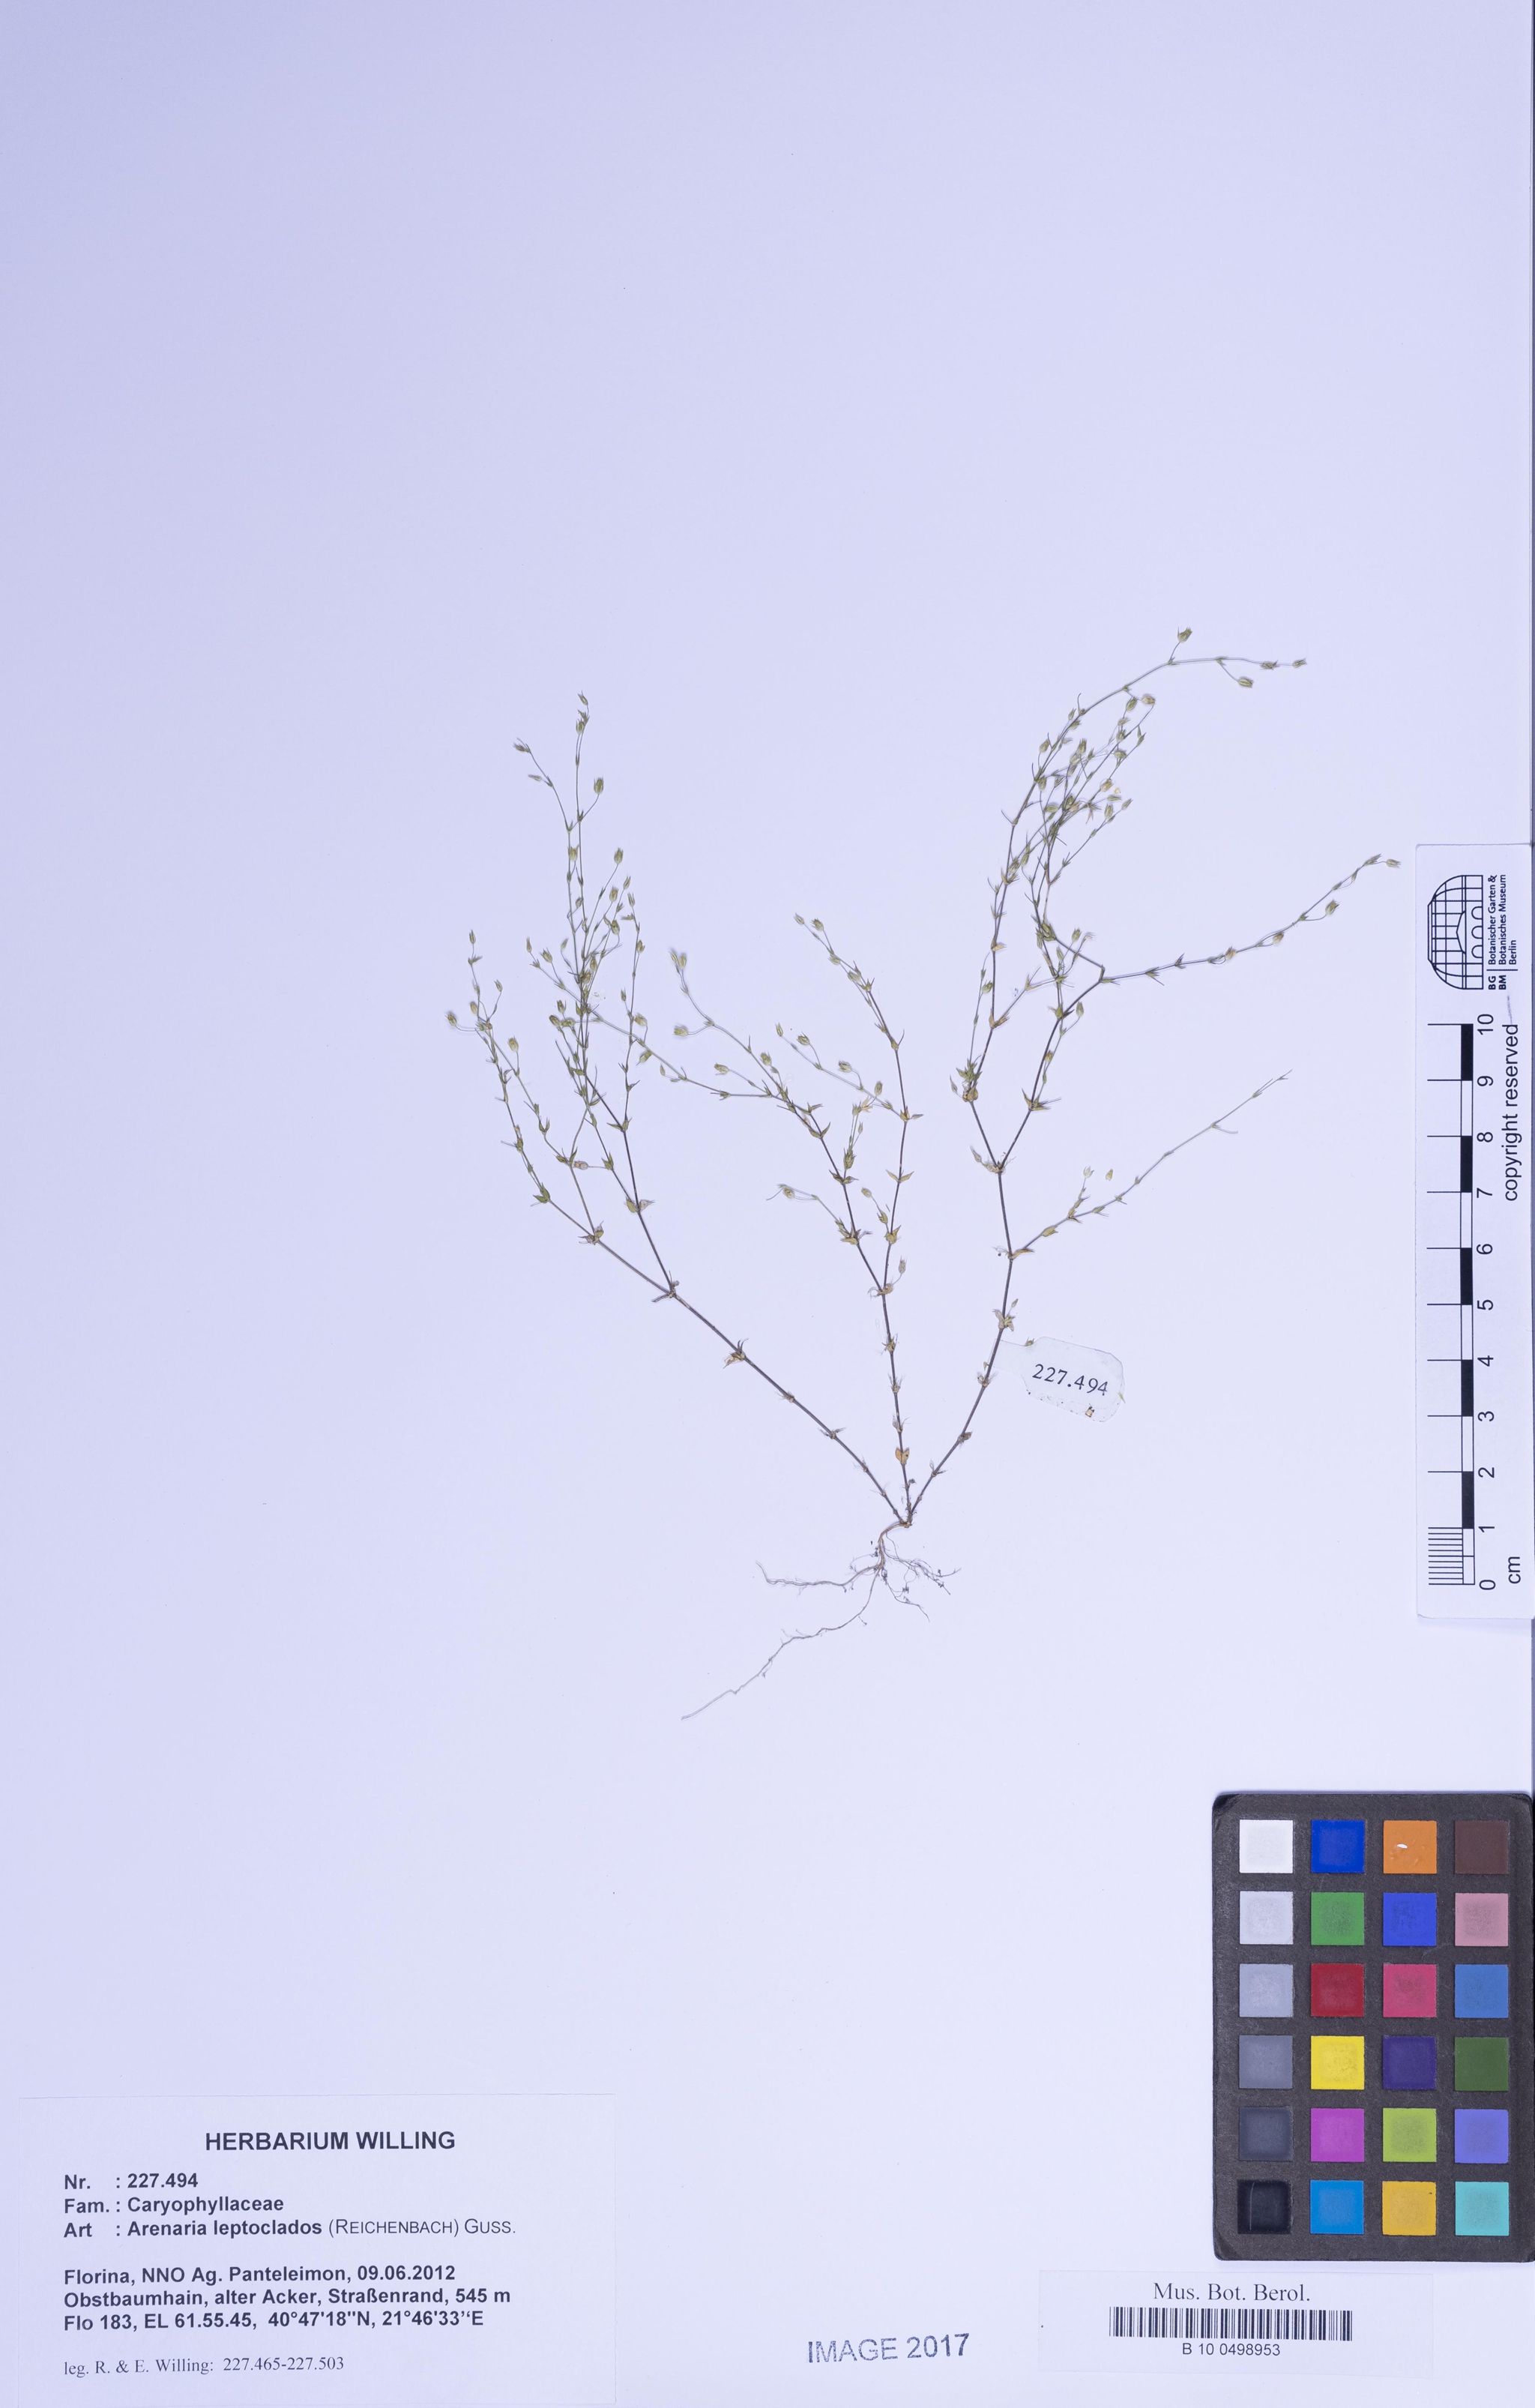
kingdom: Plantae
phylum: Tracheophyta
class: Magnoliopsida
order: Caryophyllales
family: Caryophyllaceae
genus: Arenaria
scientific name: Arenaria leptoclados
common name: Thyme-leaved sandwort
